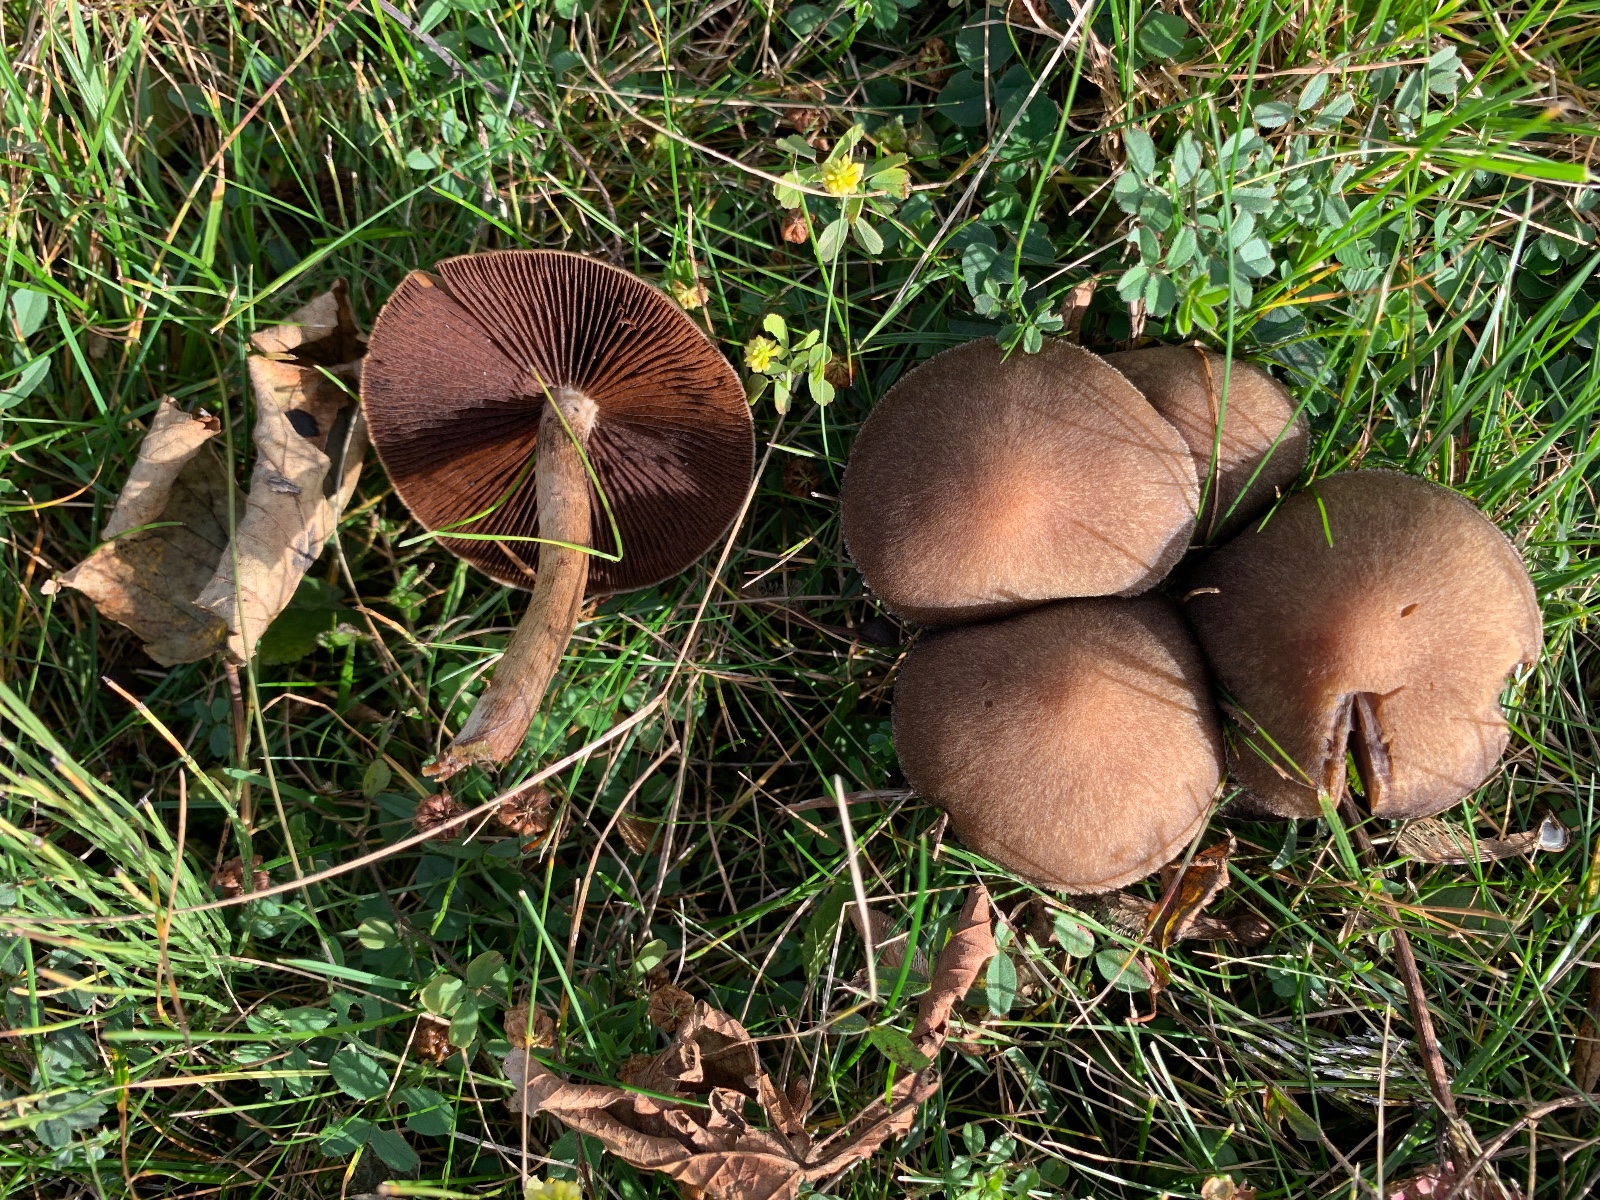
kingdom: Fungi
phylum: Basidiomycota
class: Agaricomycetes
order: Agaricales
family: Psathyrellaceae
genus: Lacrymaria
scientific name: Lacrymaria lacrymabunda
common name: grædende mørkhat
